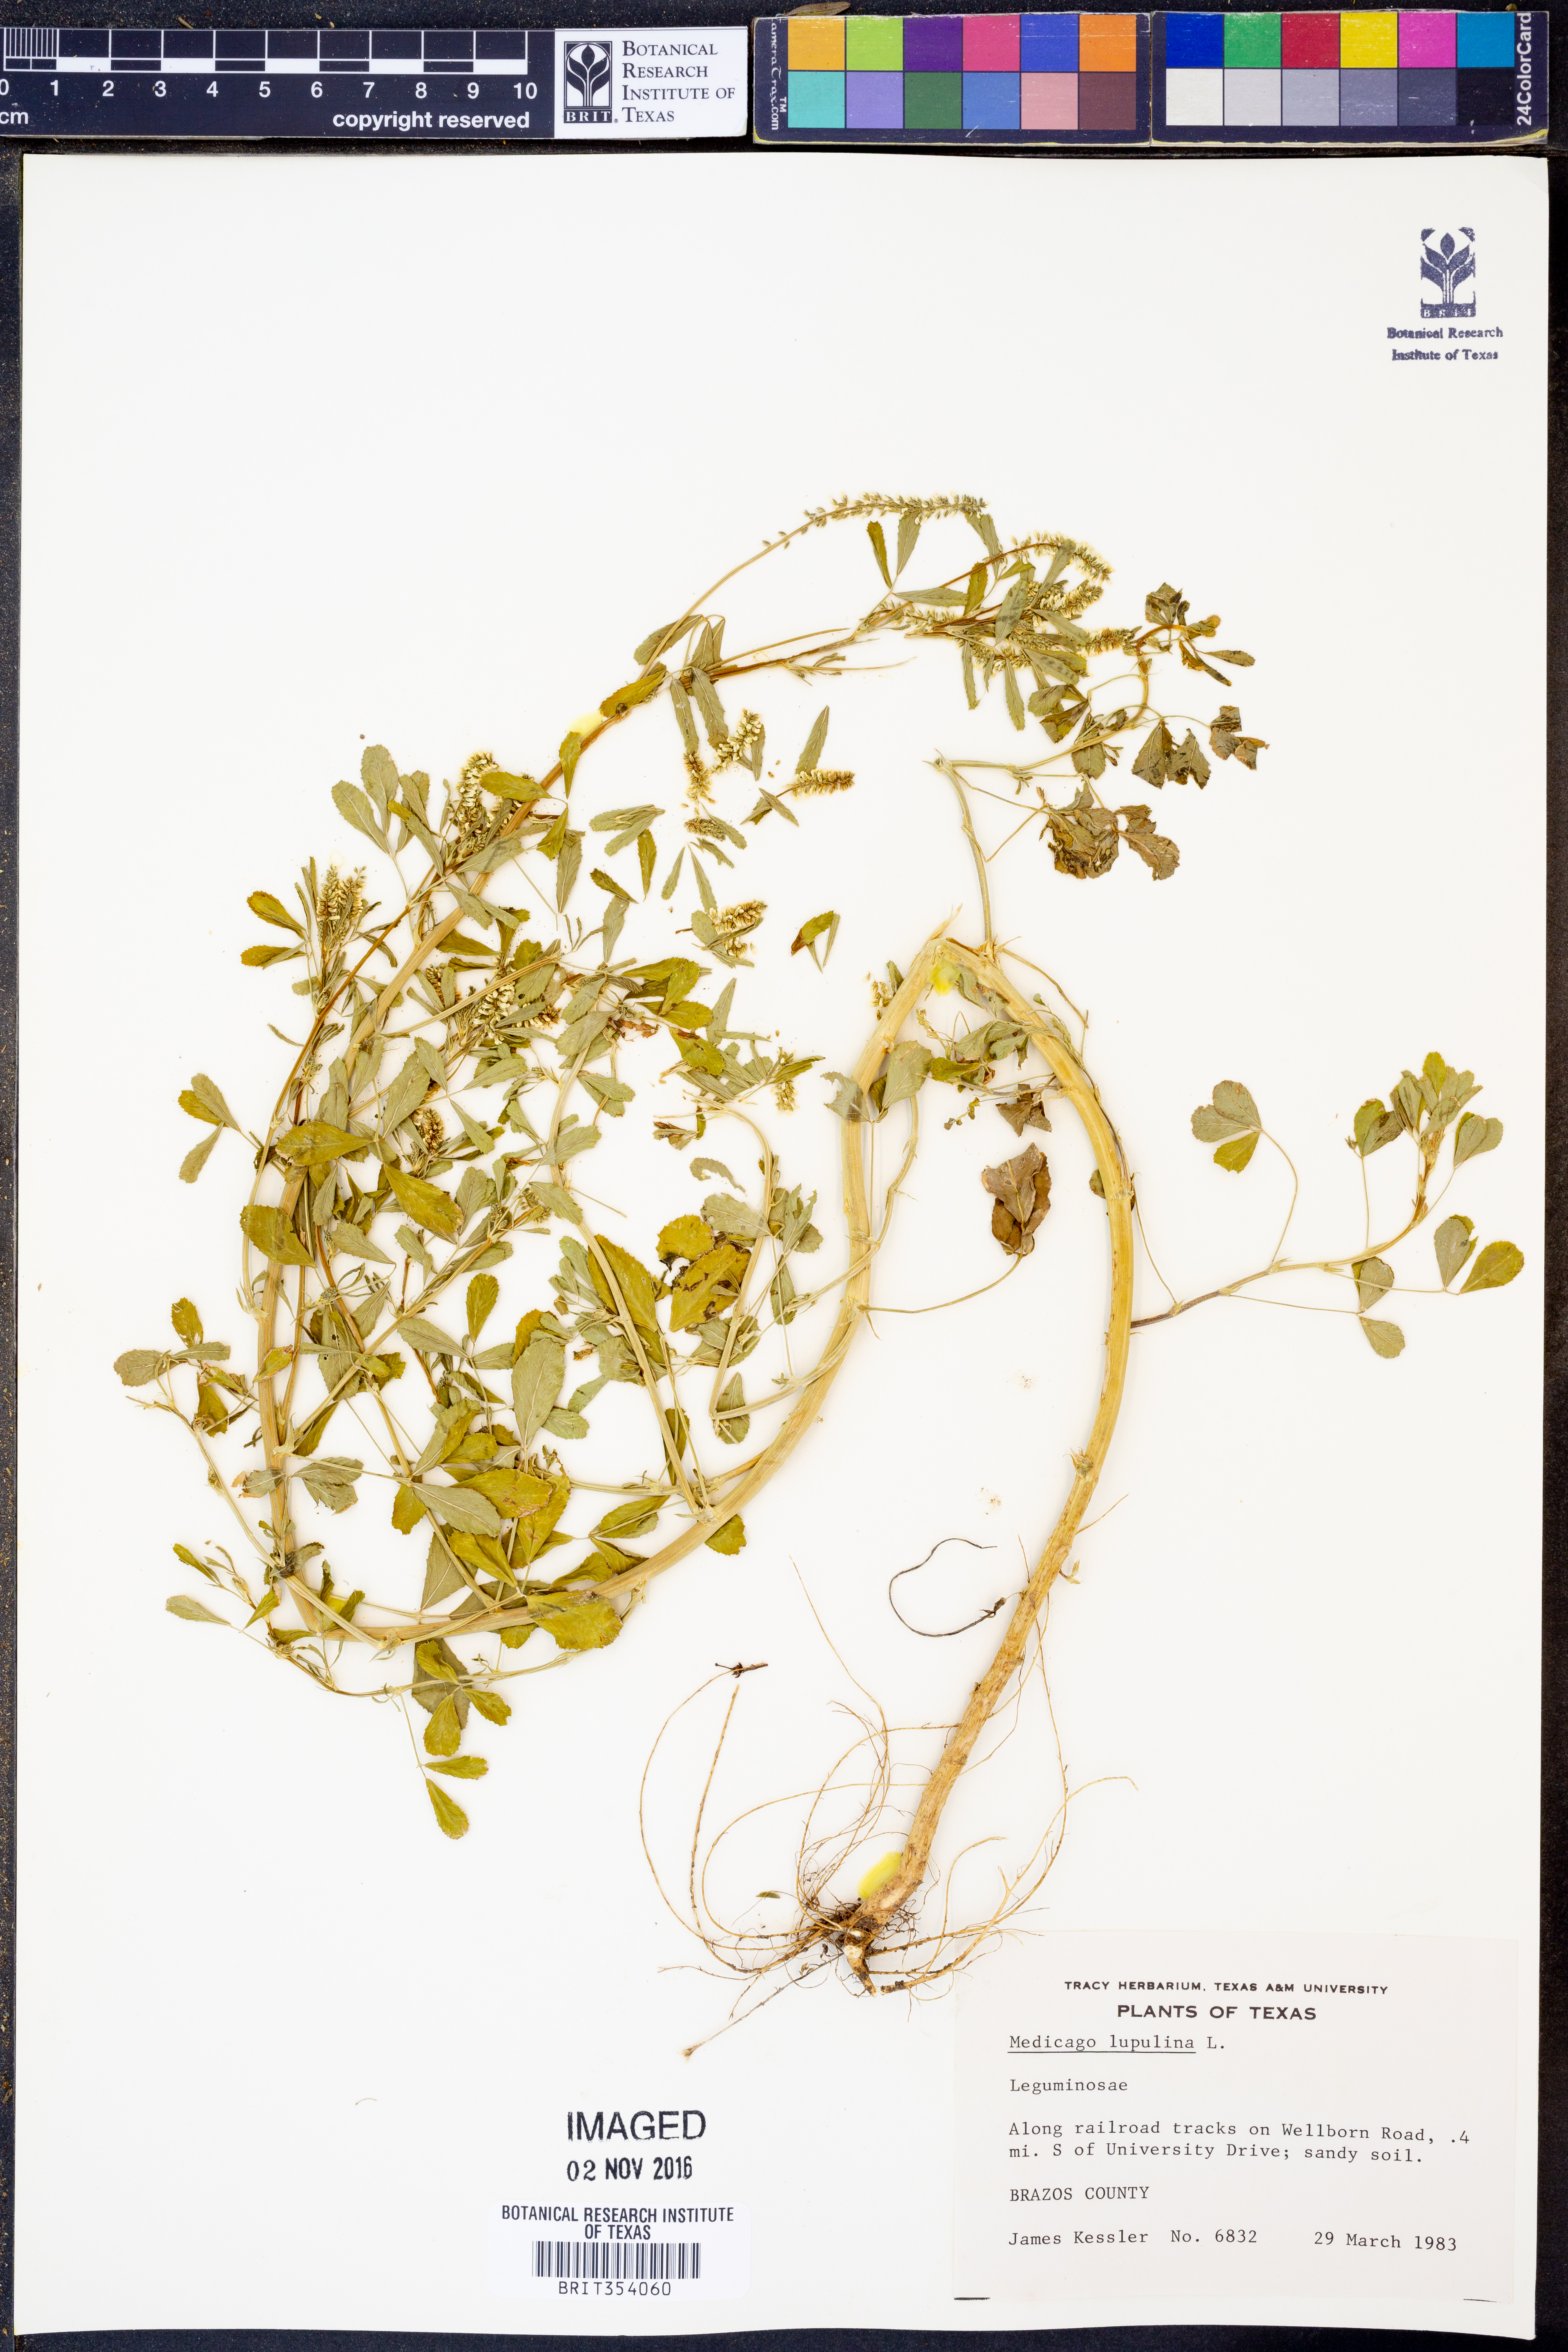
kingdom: Plantae
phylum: Tracheophyta
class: Magnoliopsida
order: Fabales
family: Fabaceae
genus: Medicago
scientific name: Medicago lupulina
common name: Black medick
